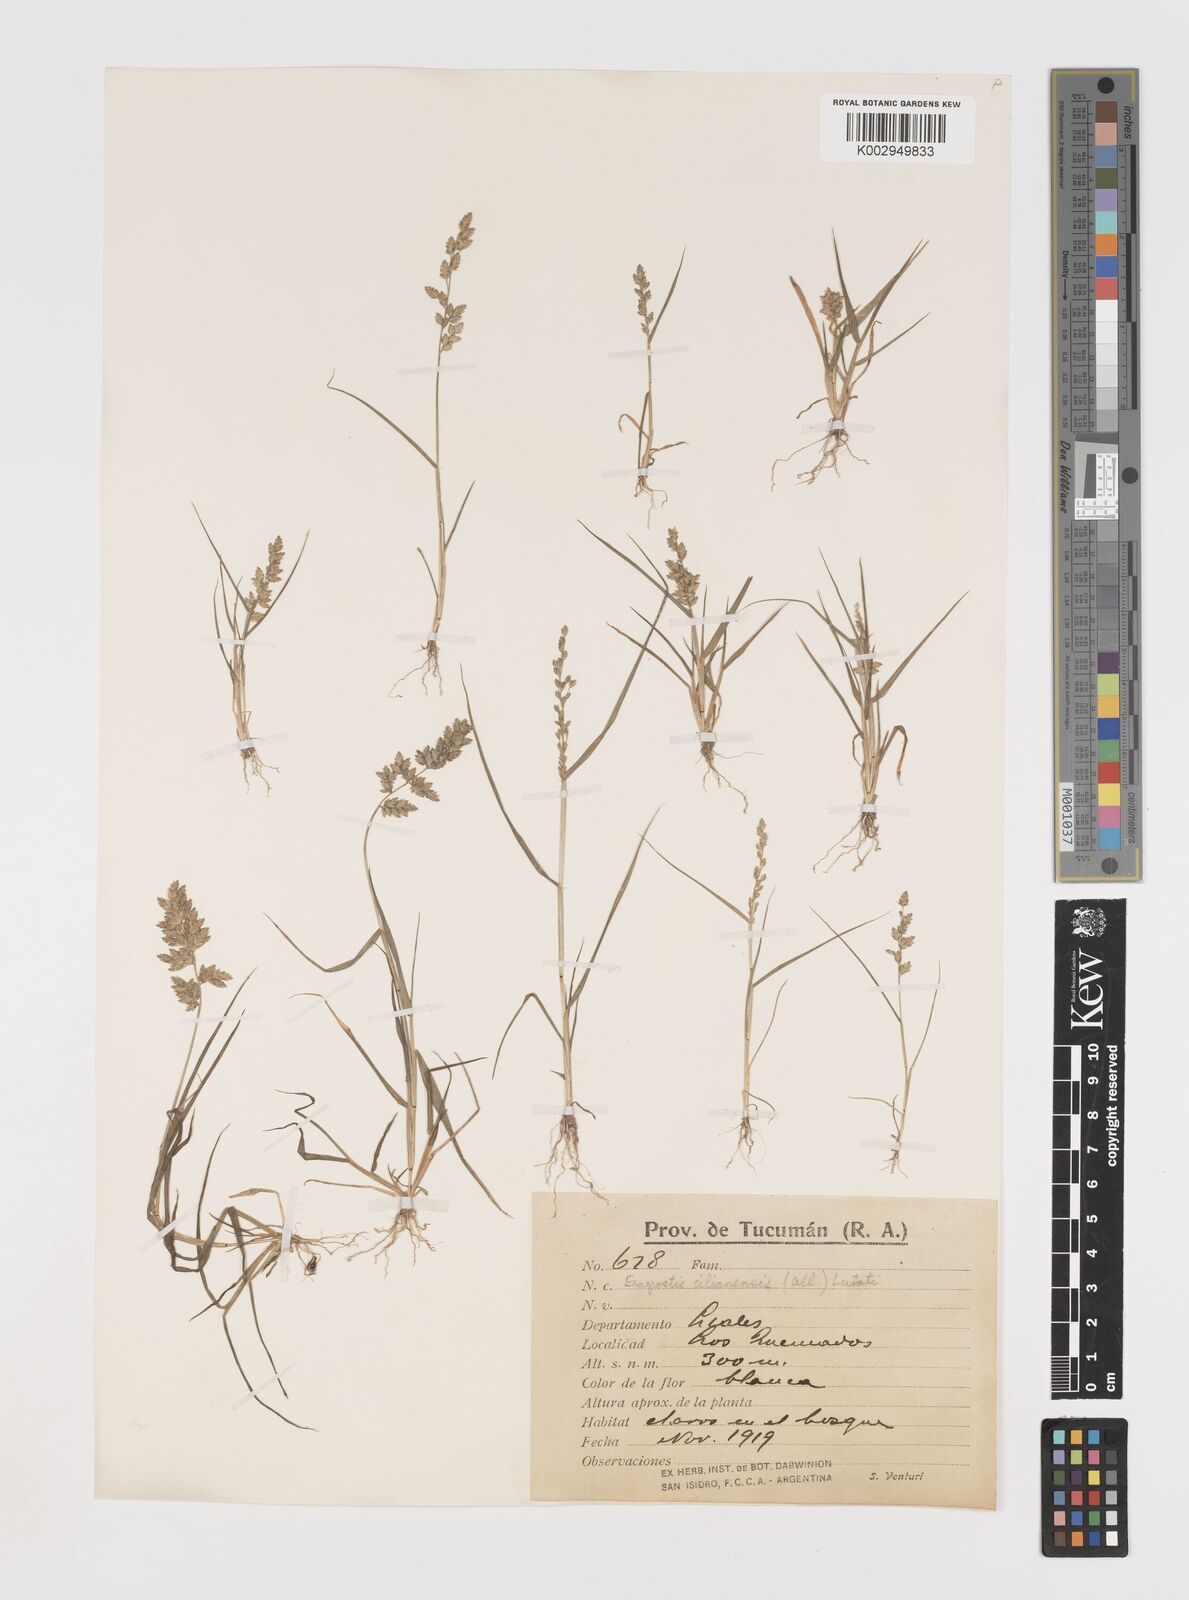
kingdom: Plantae
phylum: Tracheophyta
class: Liliopsida
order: Poales
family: Poaceae
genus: Eragrostis
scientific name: Eragrostis cilianensis
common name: Stinkgrass
